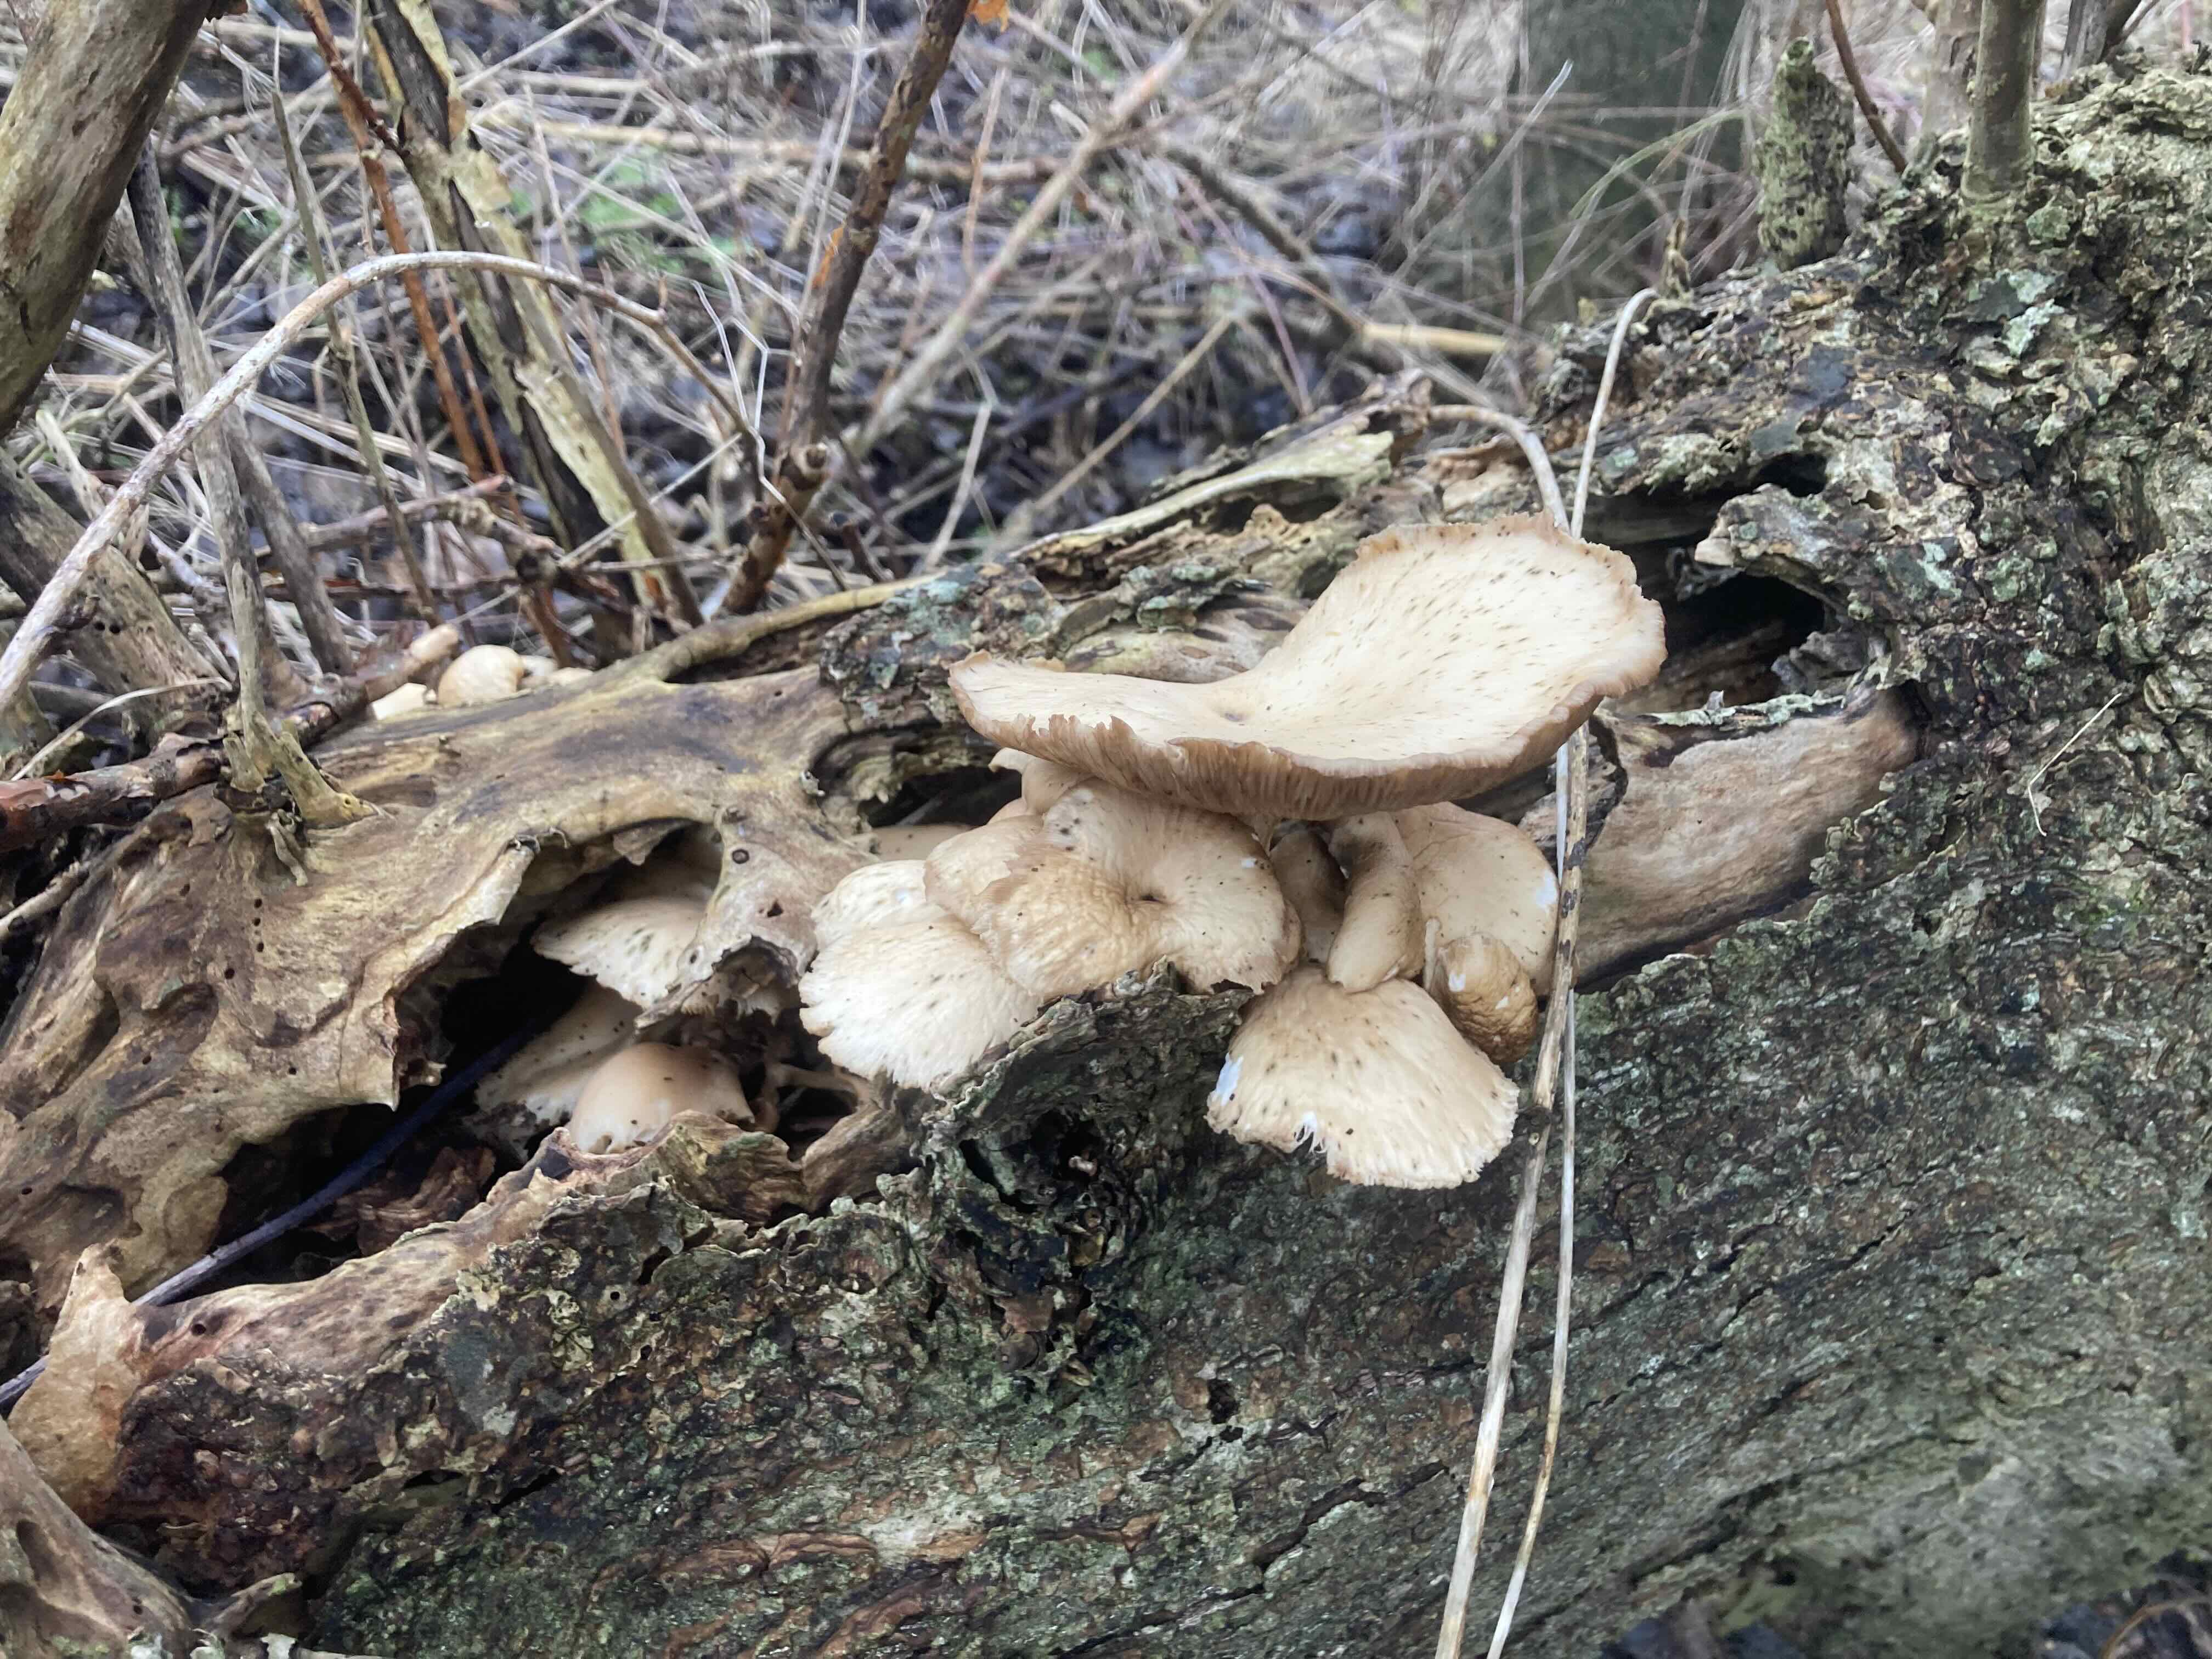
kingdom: Fungi
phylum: Basidiomycota
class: Agaricomycetes
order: Agaricales
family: Pleurotaceae
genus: Pleurotus
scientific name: Pleurotus ostreatus
